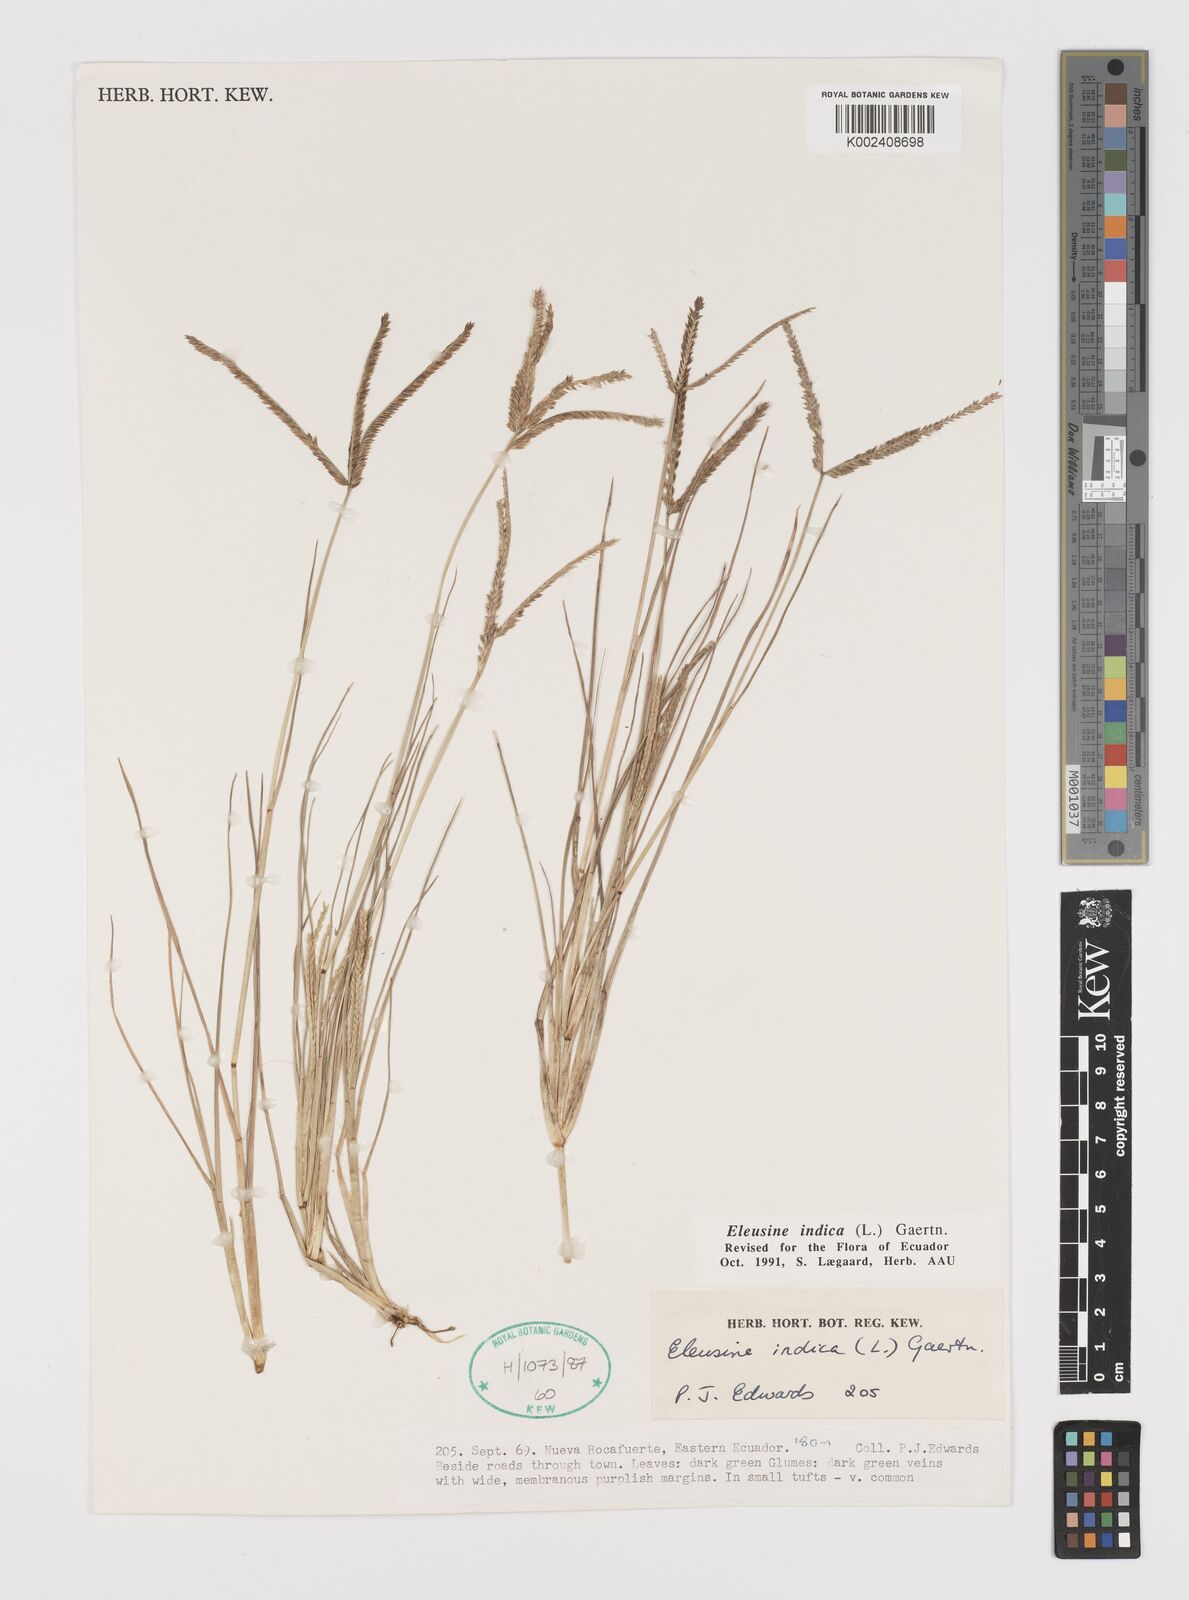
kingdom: Plantae
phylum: Tracheophyta
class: Liliopsida
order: Poales
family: Poaceae
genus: Eleusine
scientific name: Eleusine indica
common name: Yard-grass
